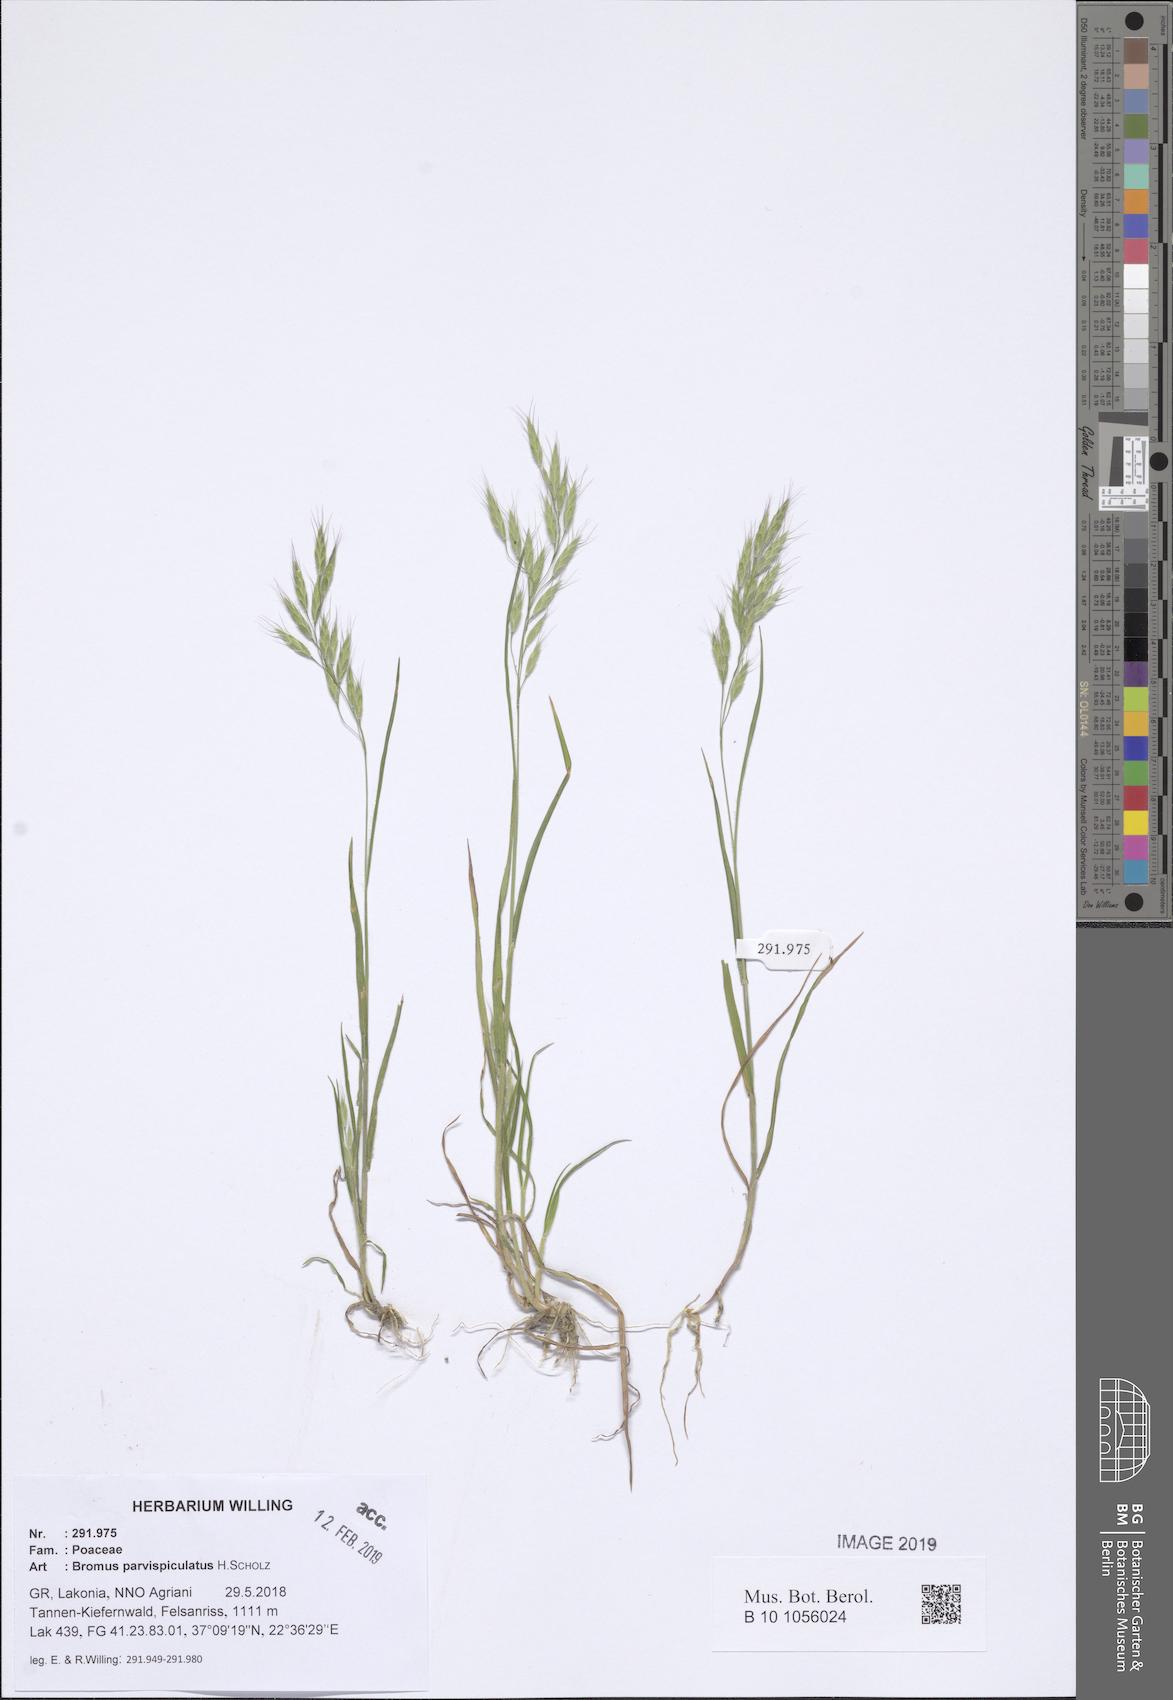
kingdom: Plantae
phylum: Tracheophyta
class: Liliopsida
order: Poales
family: Poaceae
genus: Bromus
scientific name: Bromus hordeaceus
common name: Soft brome
